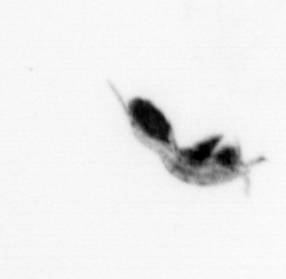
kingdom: Animalia
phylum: Arthropoda
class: Copepoda
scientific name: Copepoda
